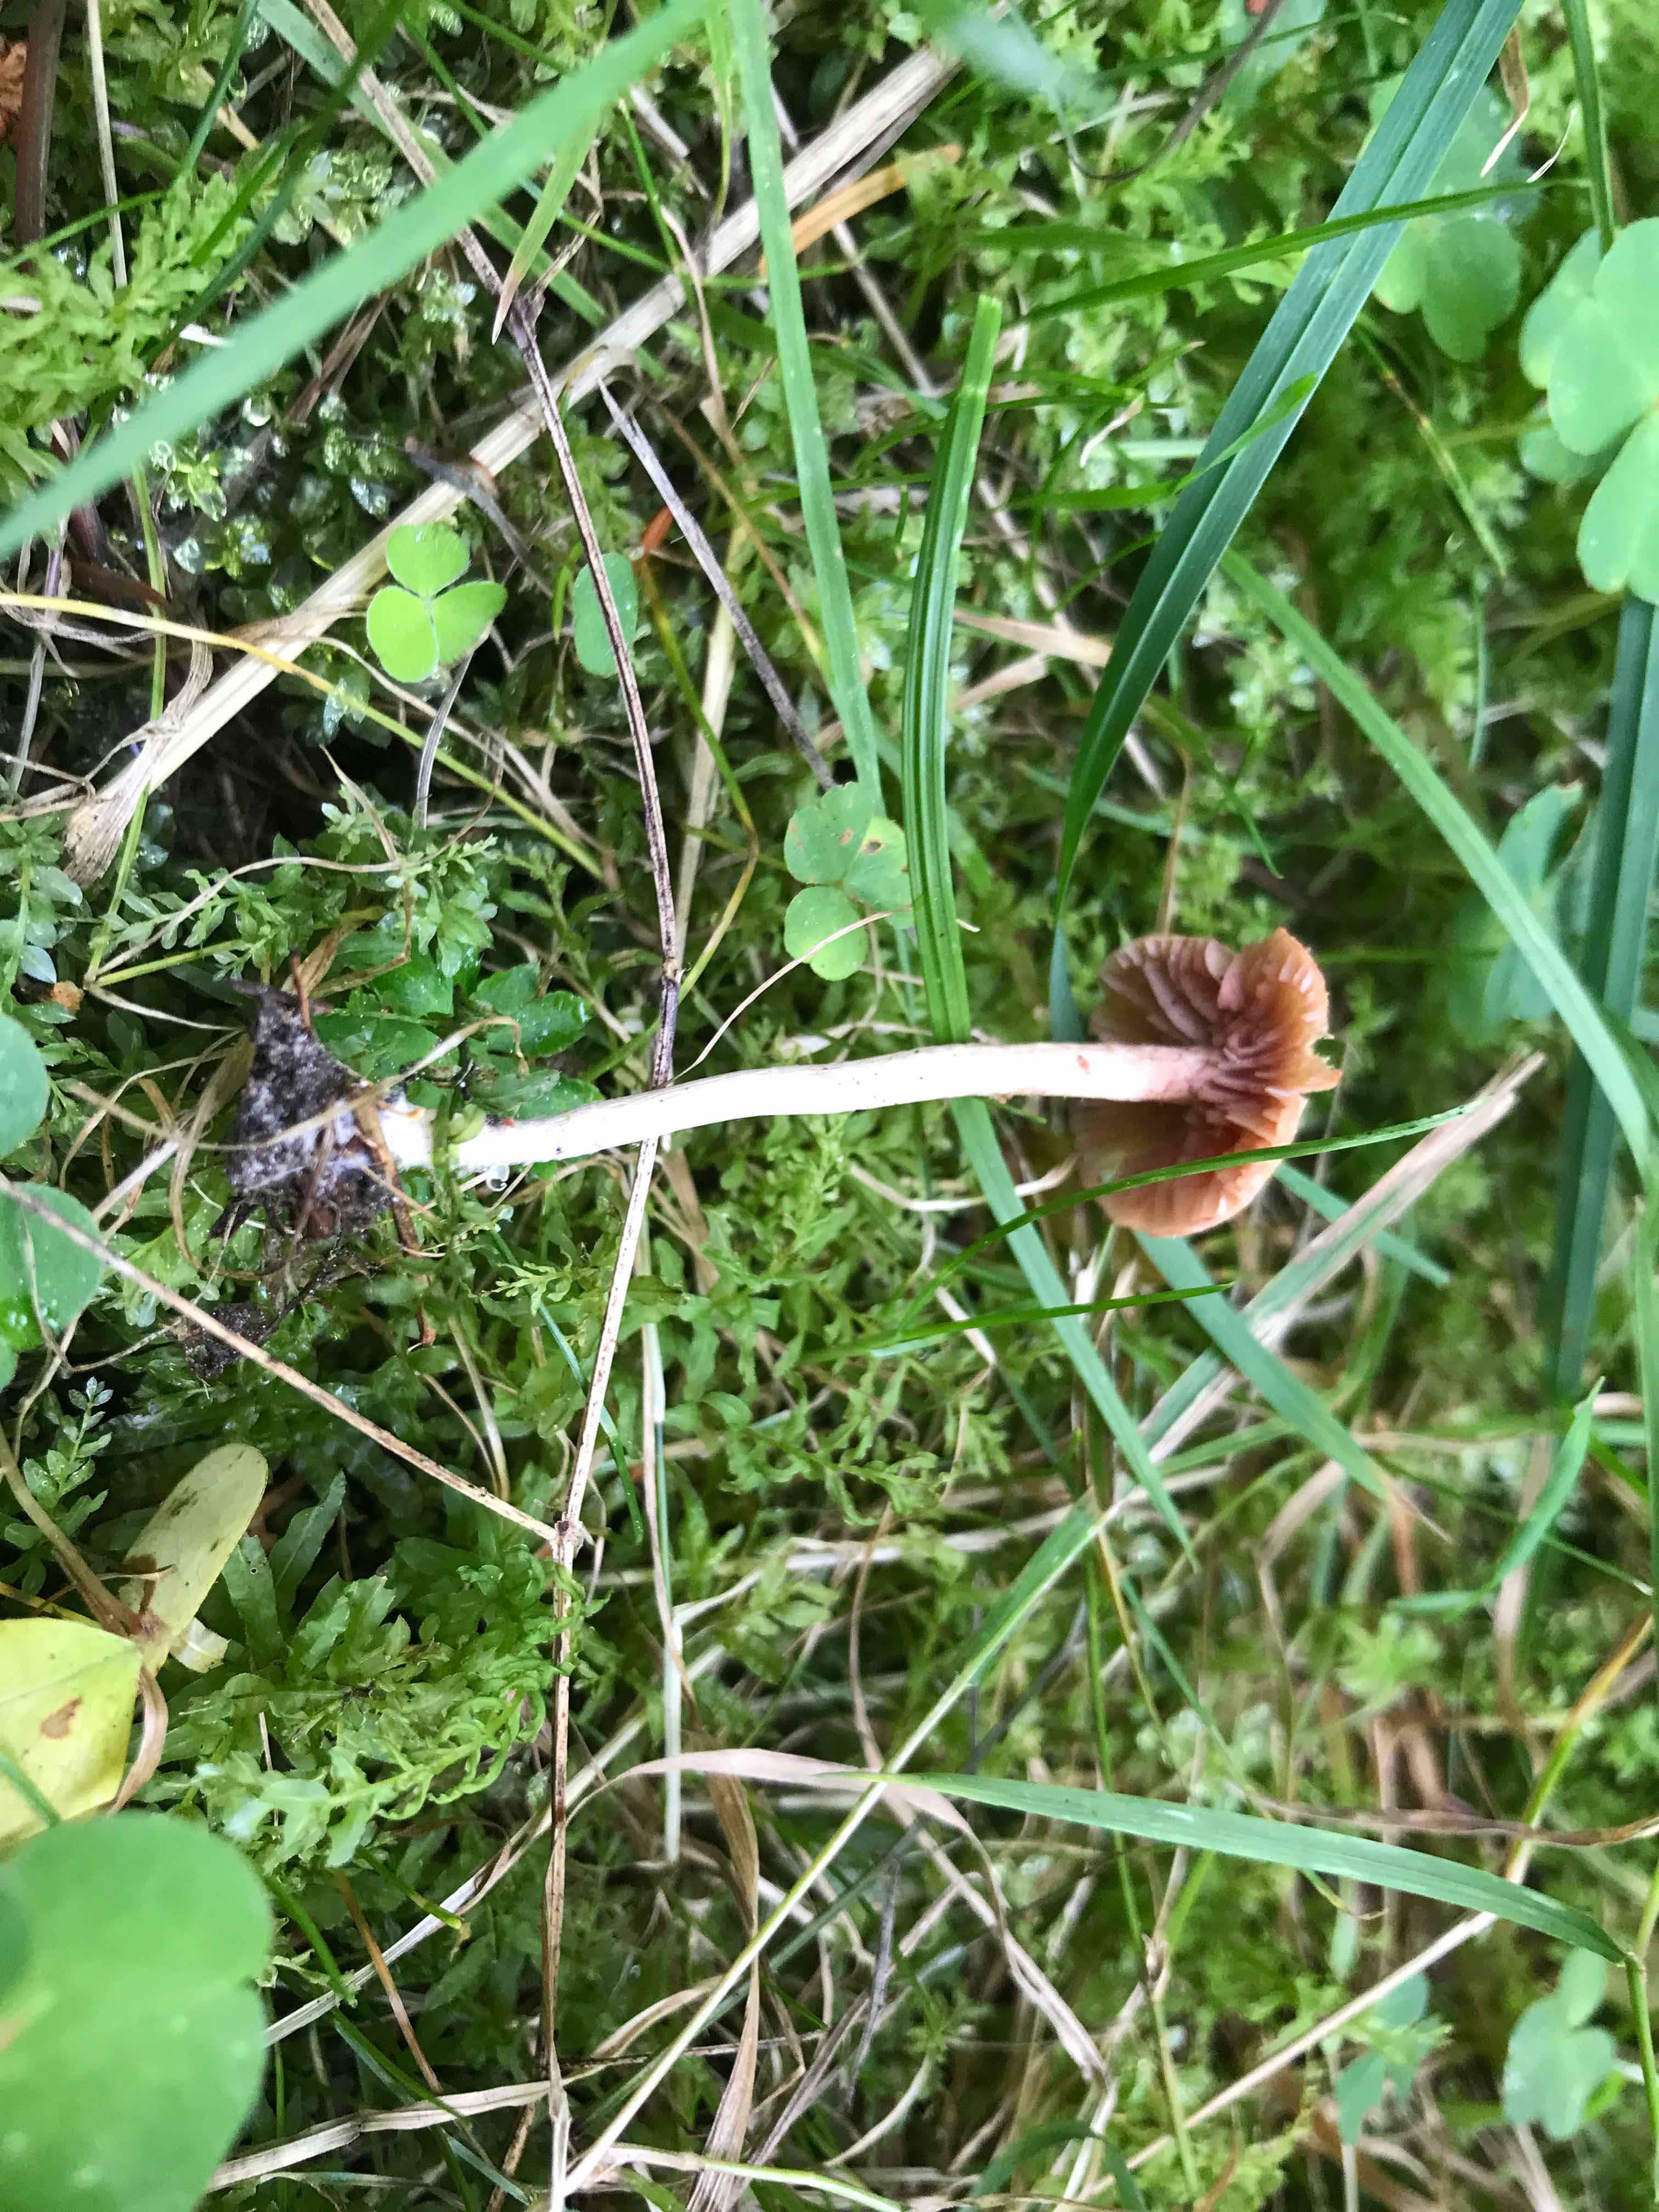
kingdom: Fungi
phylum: Basidiomycota
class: Agaricomycetes
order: Agaricales
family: Hydnangiaceae
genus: Laccaria
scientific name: Laccaria laccata
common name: rød ametysthat
